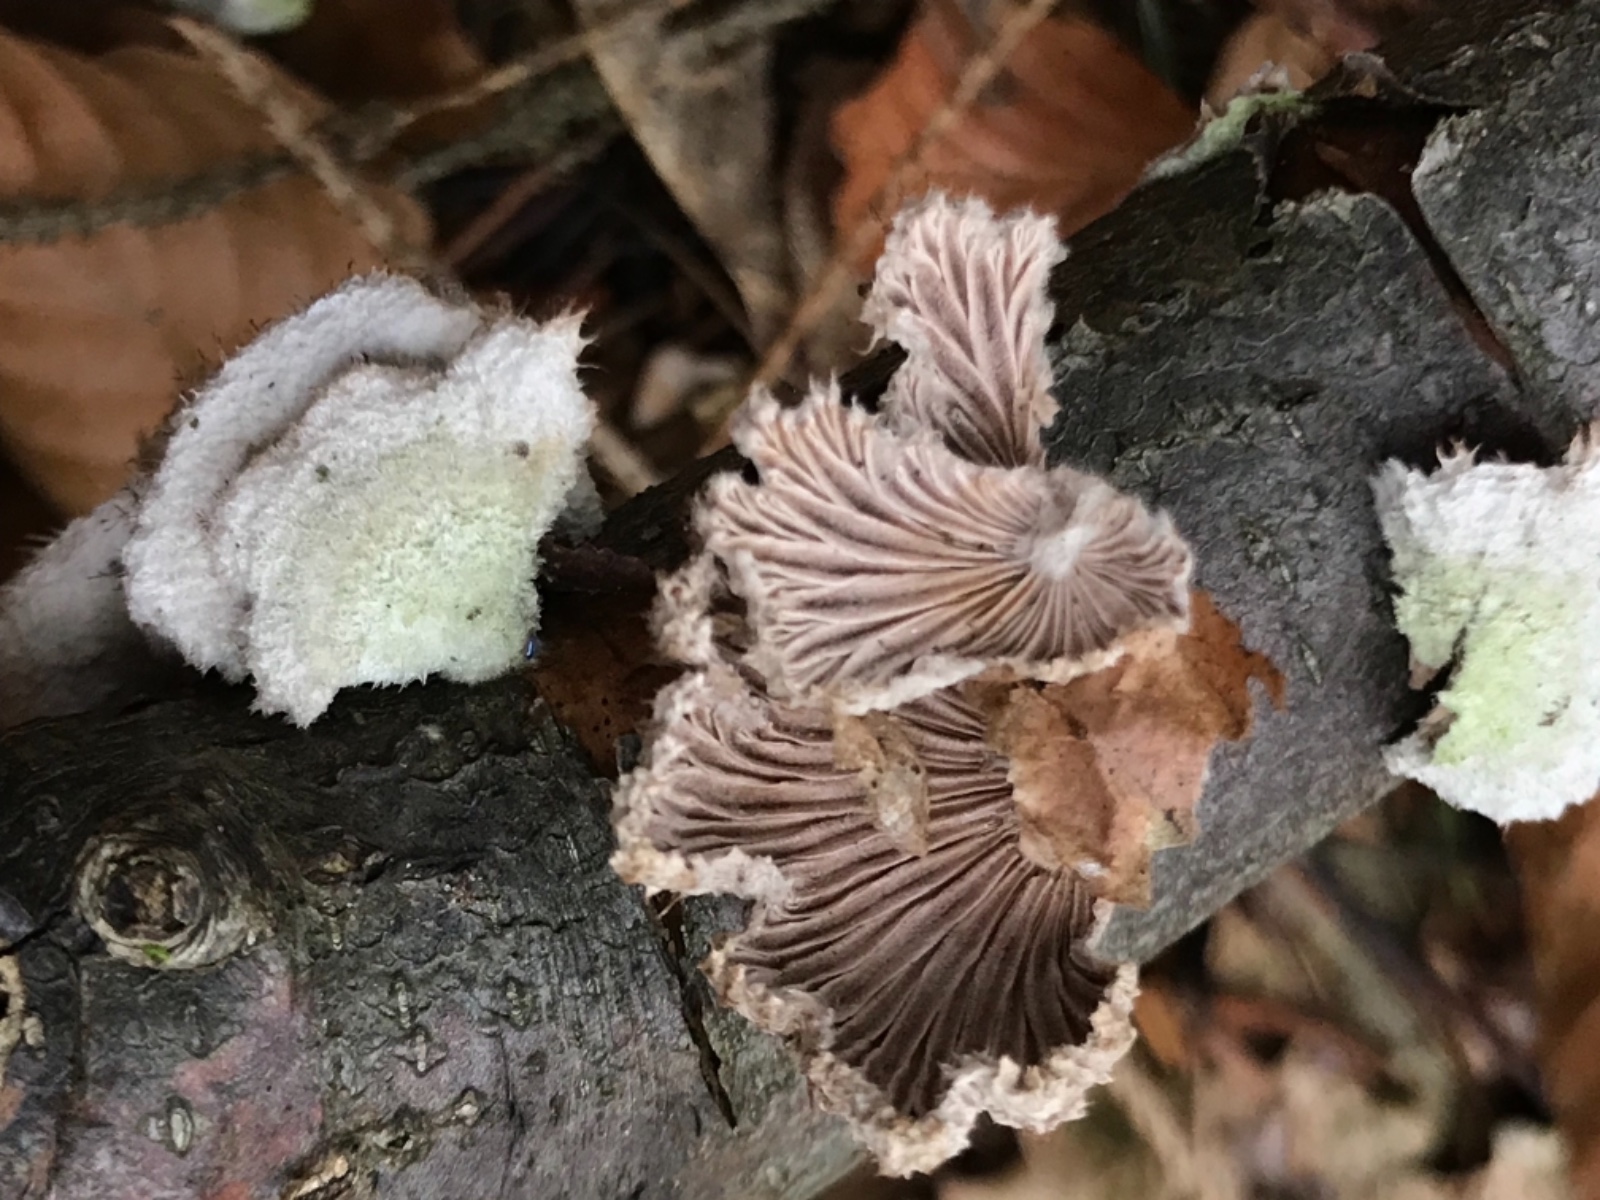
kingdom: Fungi
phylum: Basidiomycota
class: Agaricomycetes
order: Agaricales
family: Schizophyllaceae
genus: Schizophyllum
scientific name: Schizophyllum commune
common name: kløvblad
